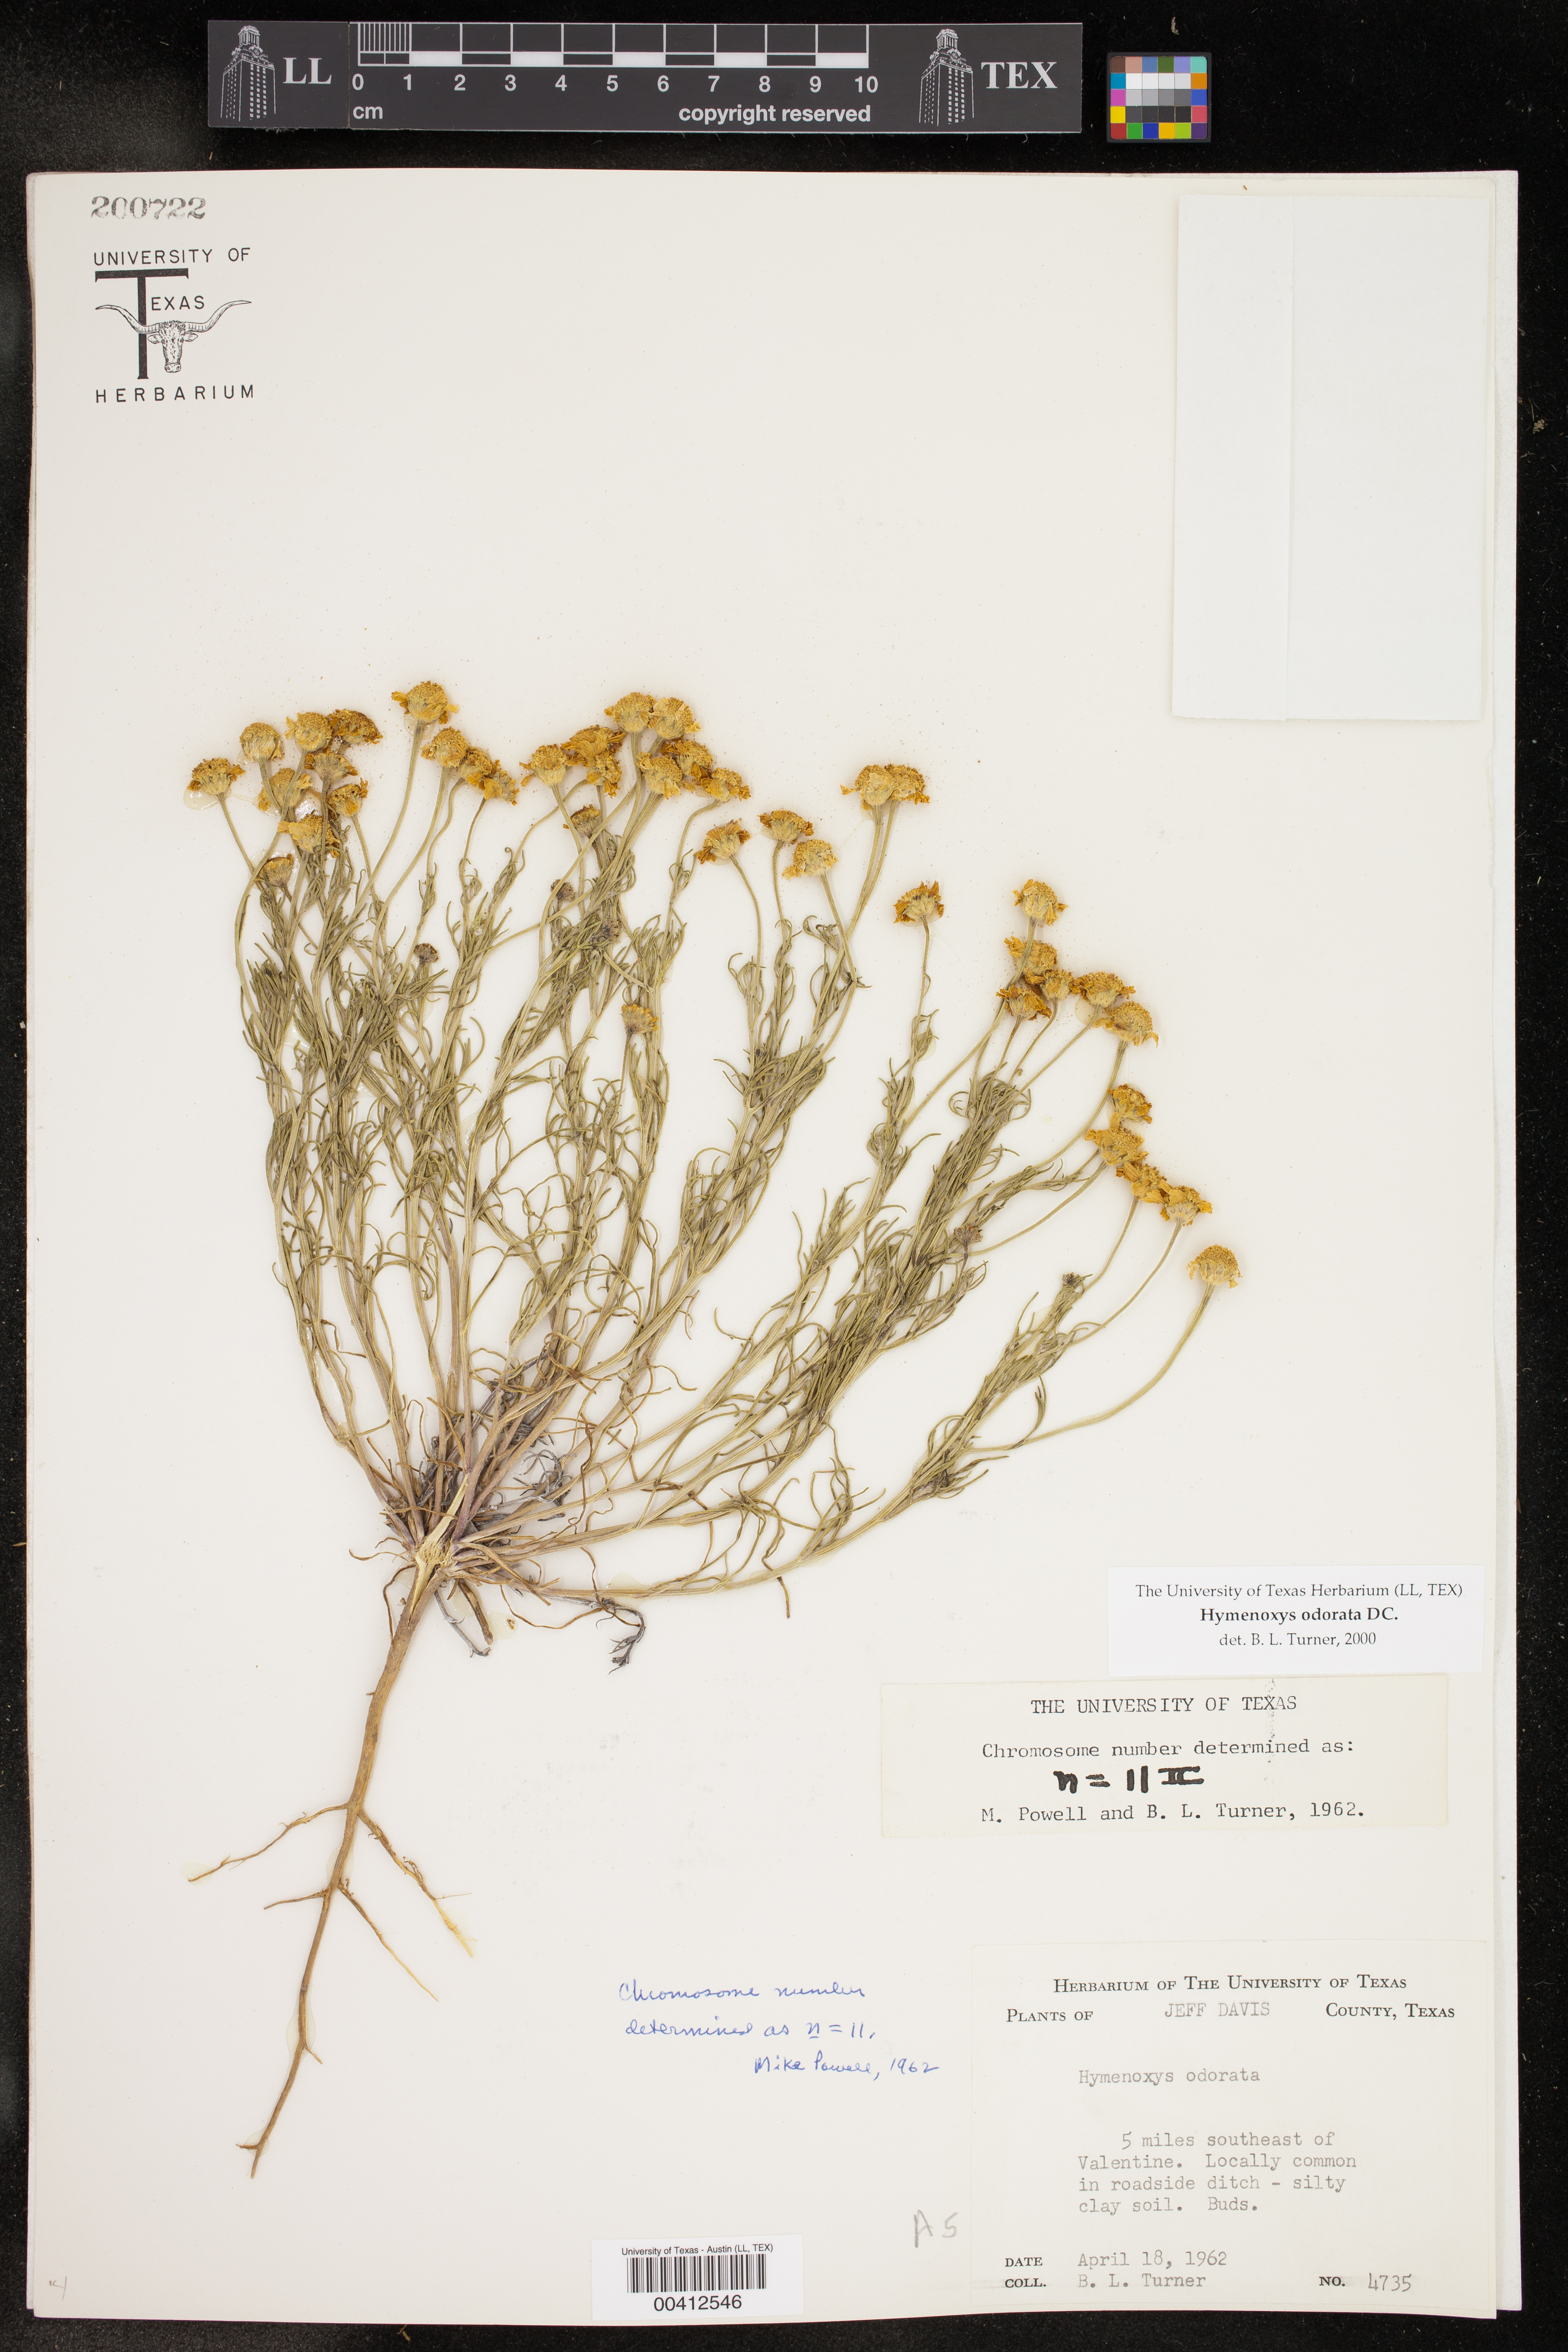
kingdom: Plantae
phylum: Tracheophyta
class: Magnoliopsida
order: Asterales
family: Asteraceae
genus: Hymenoxys
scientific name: Hymenoxys odorata
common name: Bitter rubberweed
